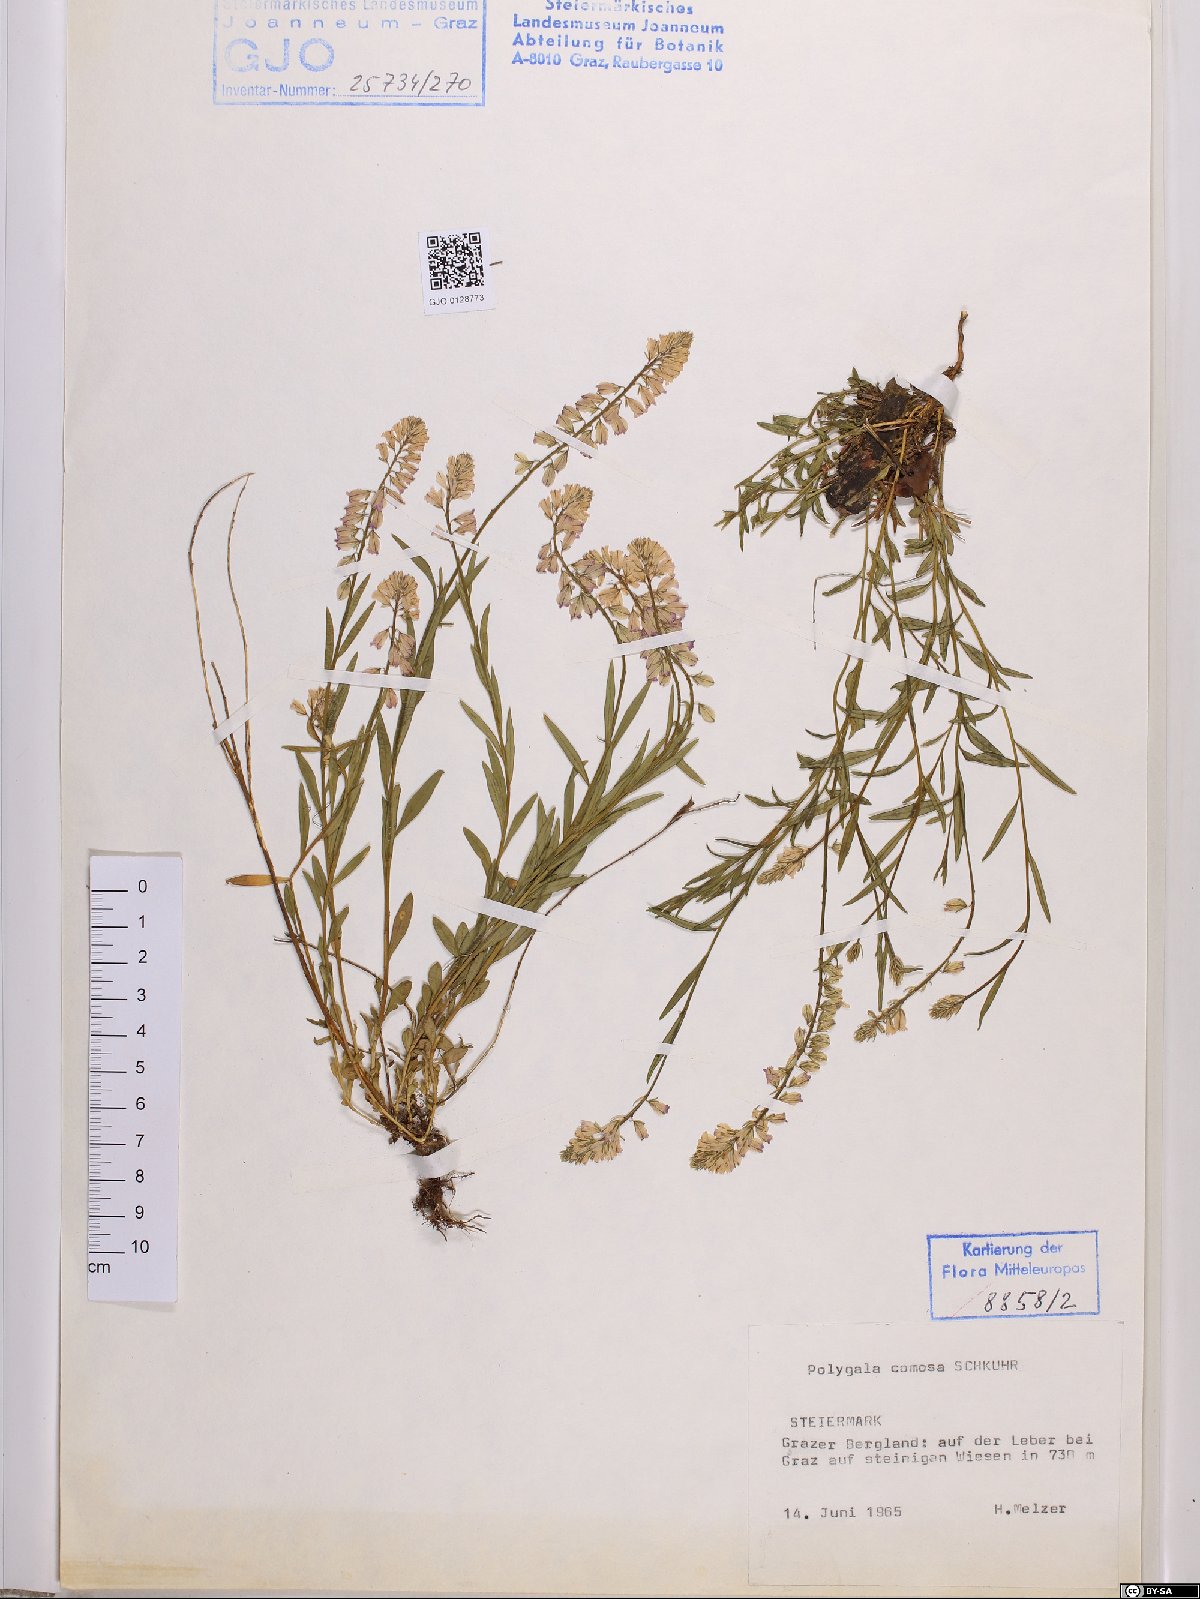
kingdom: Plantae
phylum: Tracheophyta
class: Magnoliopsida
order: Fabales
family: Polygalaceae
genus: Polygala
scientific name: Polygala comosa
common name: Tufted milkwort
